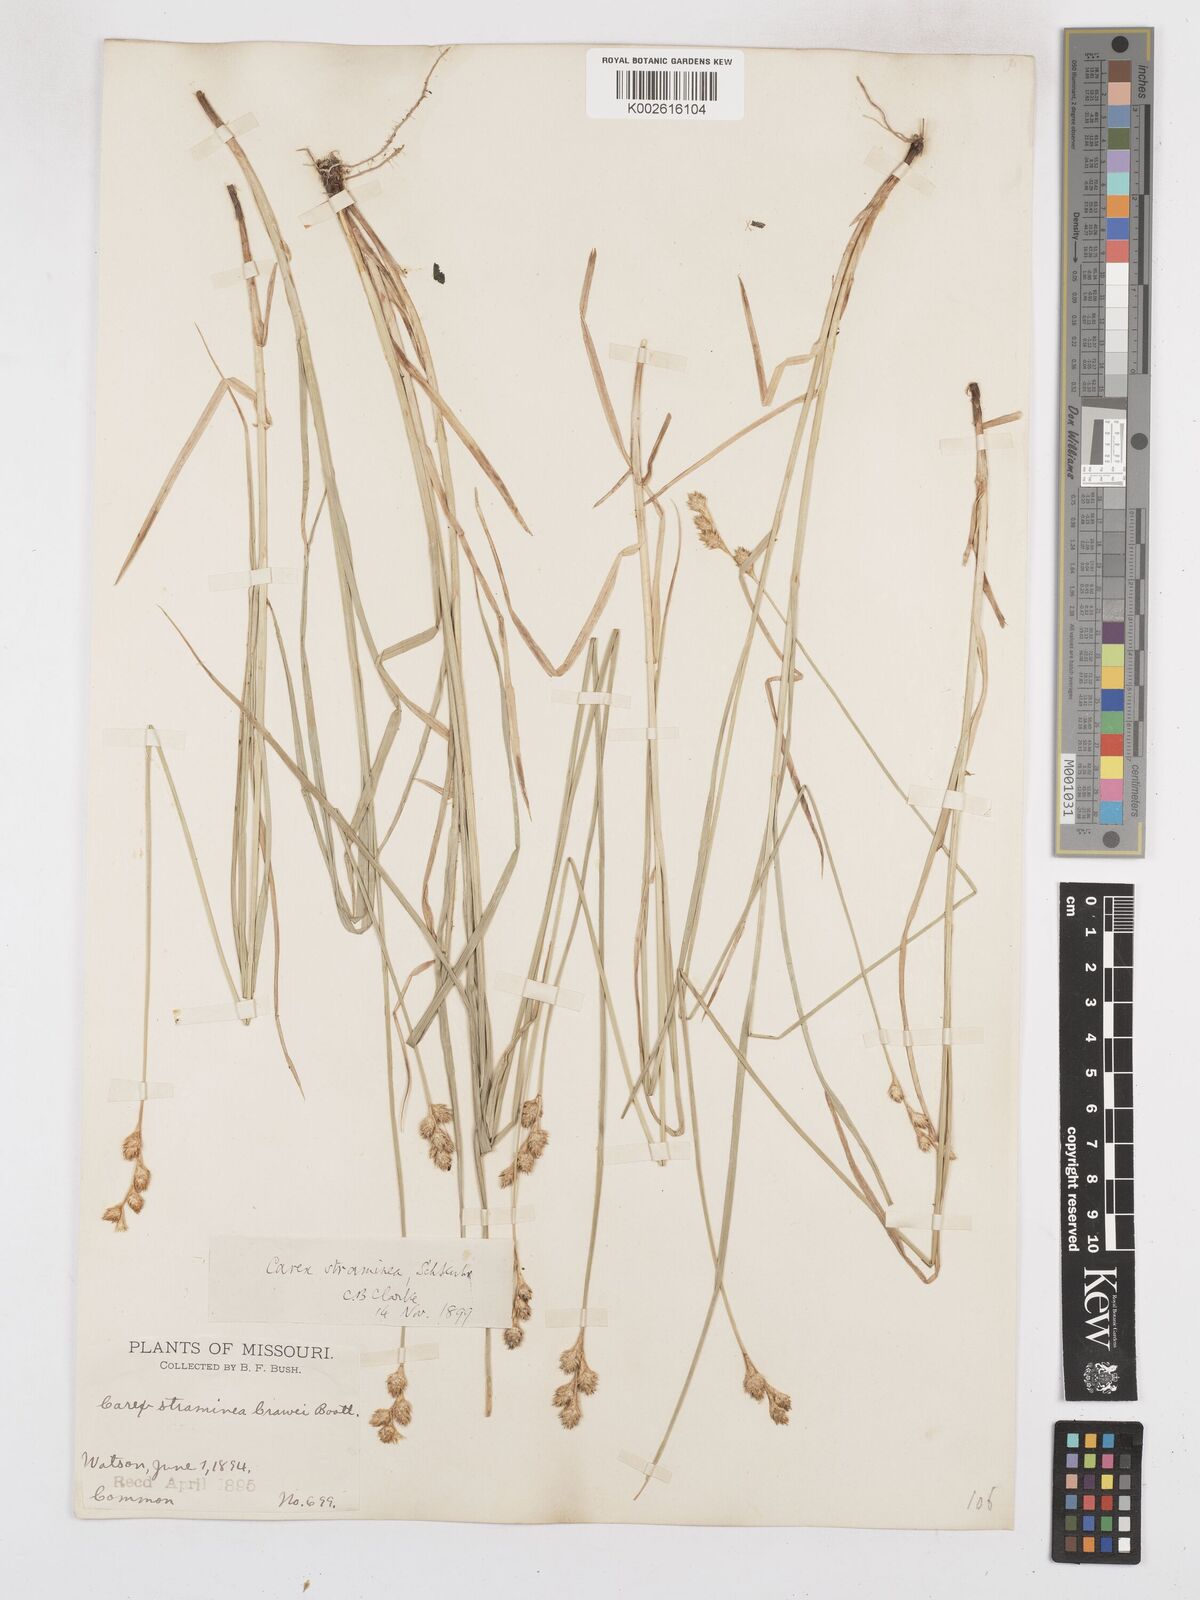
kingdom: Plantae
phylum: Tracheophyta
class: Liliopsida
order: Poales
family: Cyperaceae
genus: Carex
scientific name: Carex brevior
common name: Brevior sedge
